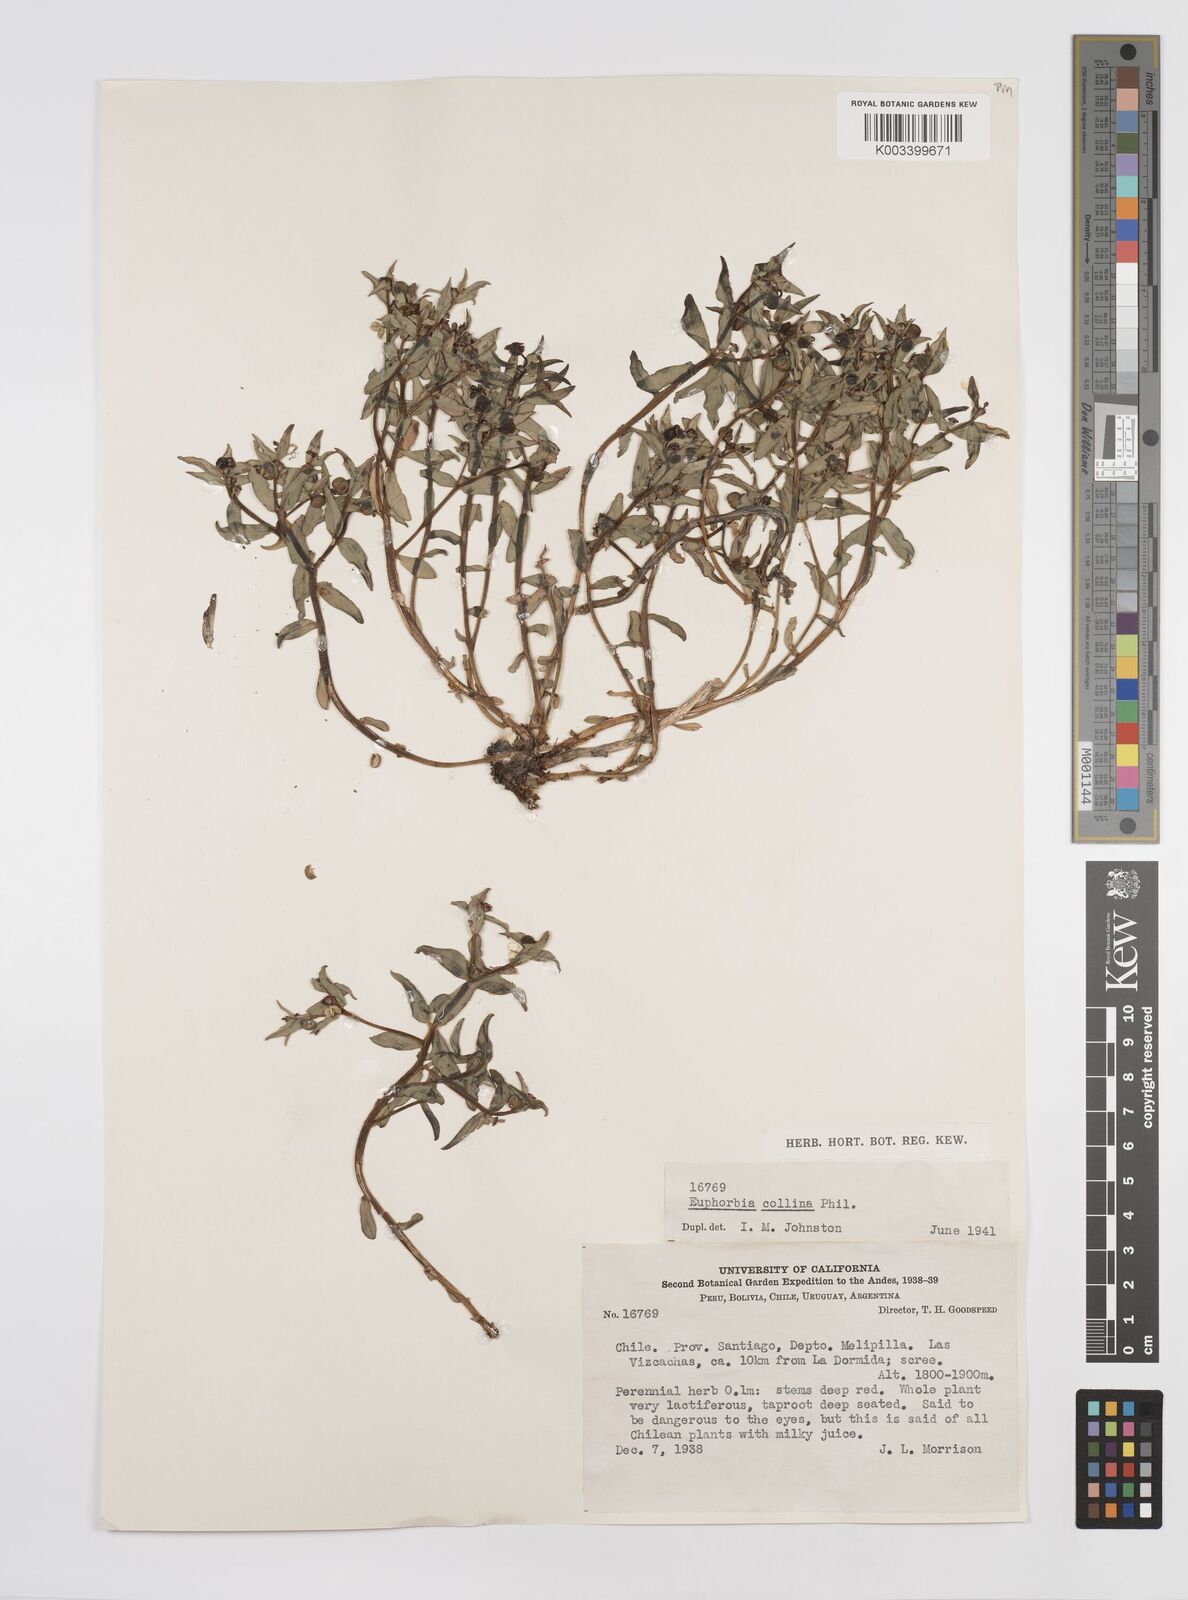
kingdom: Plantae
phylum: Tracheophyta
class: Magnoliopsida
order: Malpighiales
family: Euphorbiaceae
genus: Euphorbia
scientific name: Euphorbia
